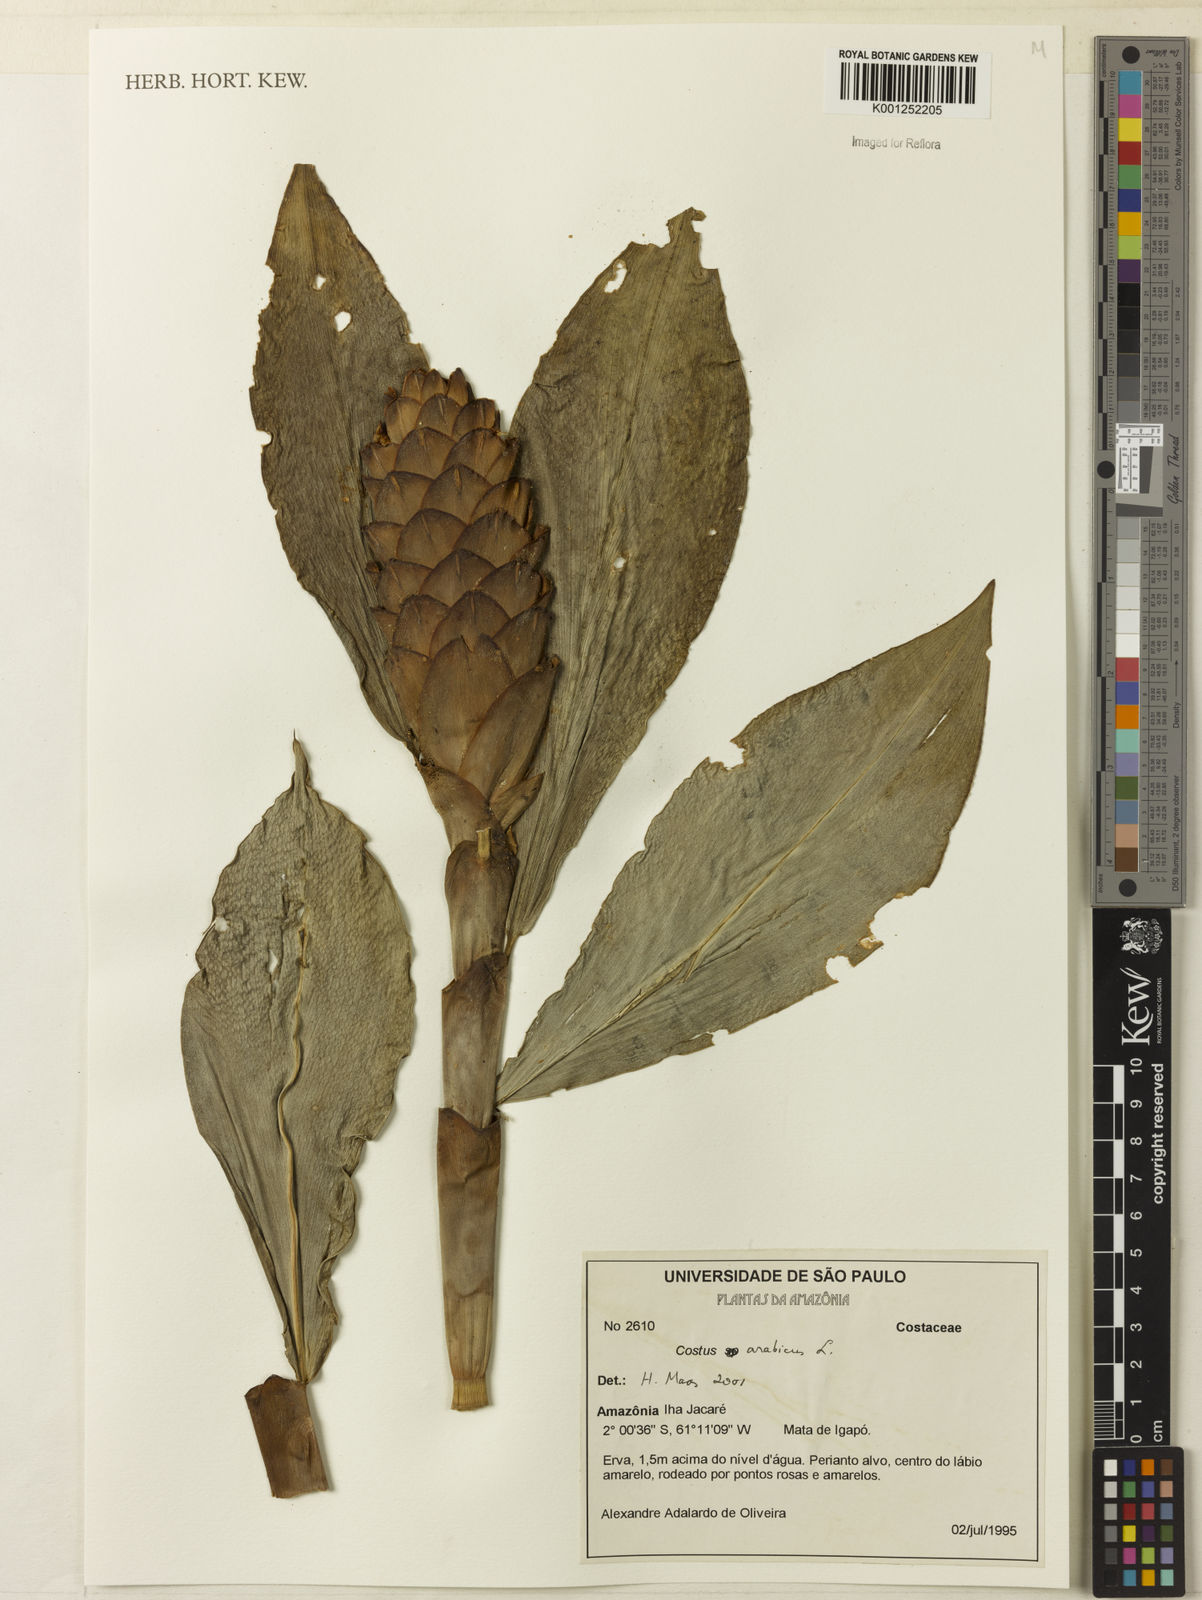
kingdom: Plantae
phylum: Tracheophyta
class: Liliopsida
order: Zingiberales
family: Costaceae
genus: Costus
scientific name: Costus arabicus
